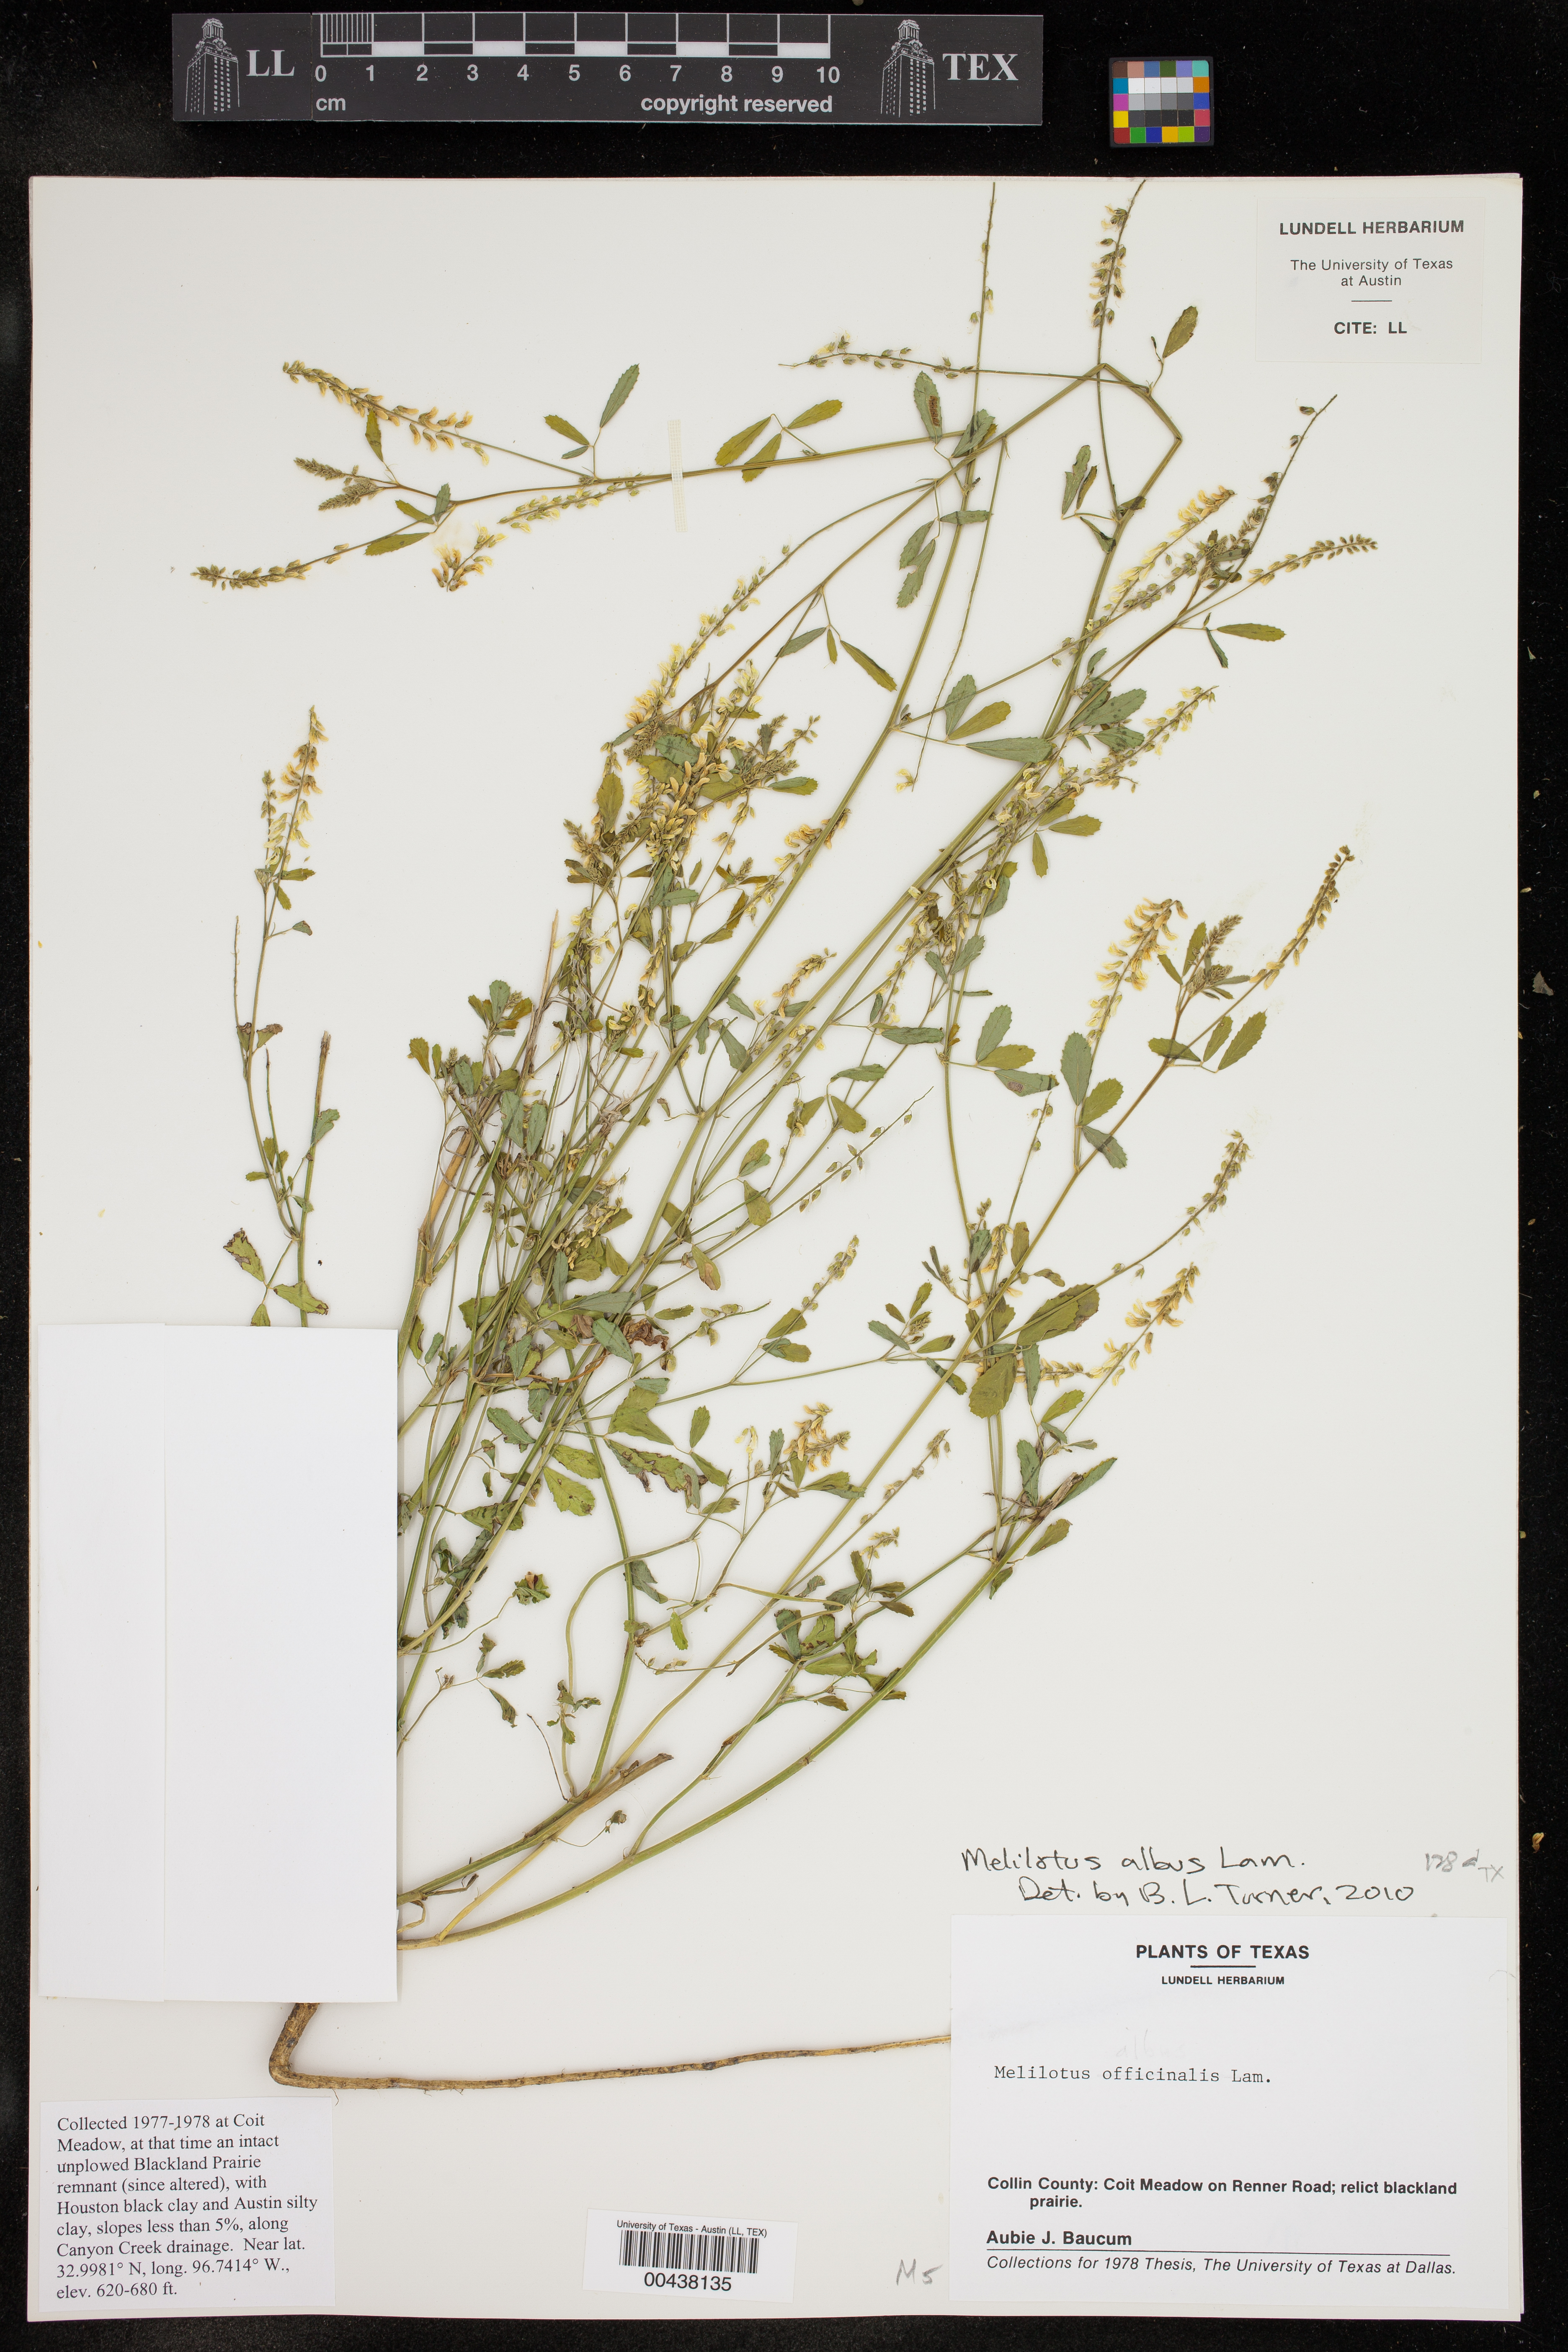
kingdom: Plantae
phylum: Tracheophyta
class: Magnoliopsida
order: Fabales
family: Fabaceae
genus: Melilotus
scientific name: Melilotus albus
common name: White melilot
